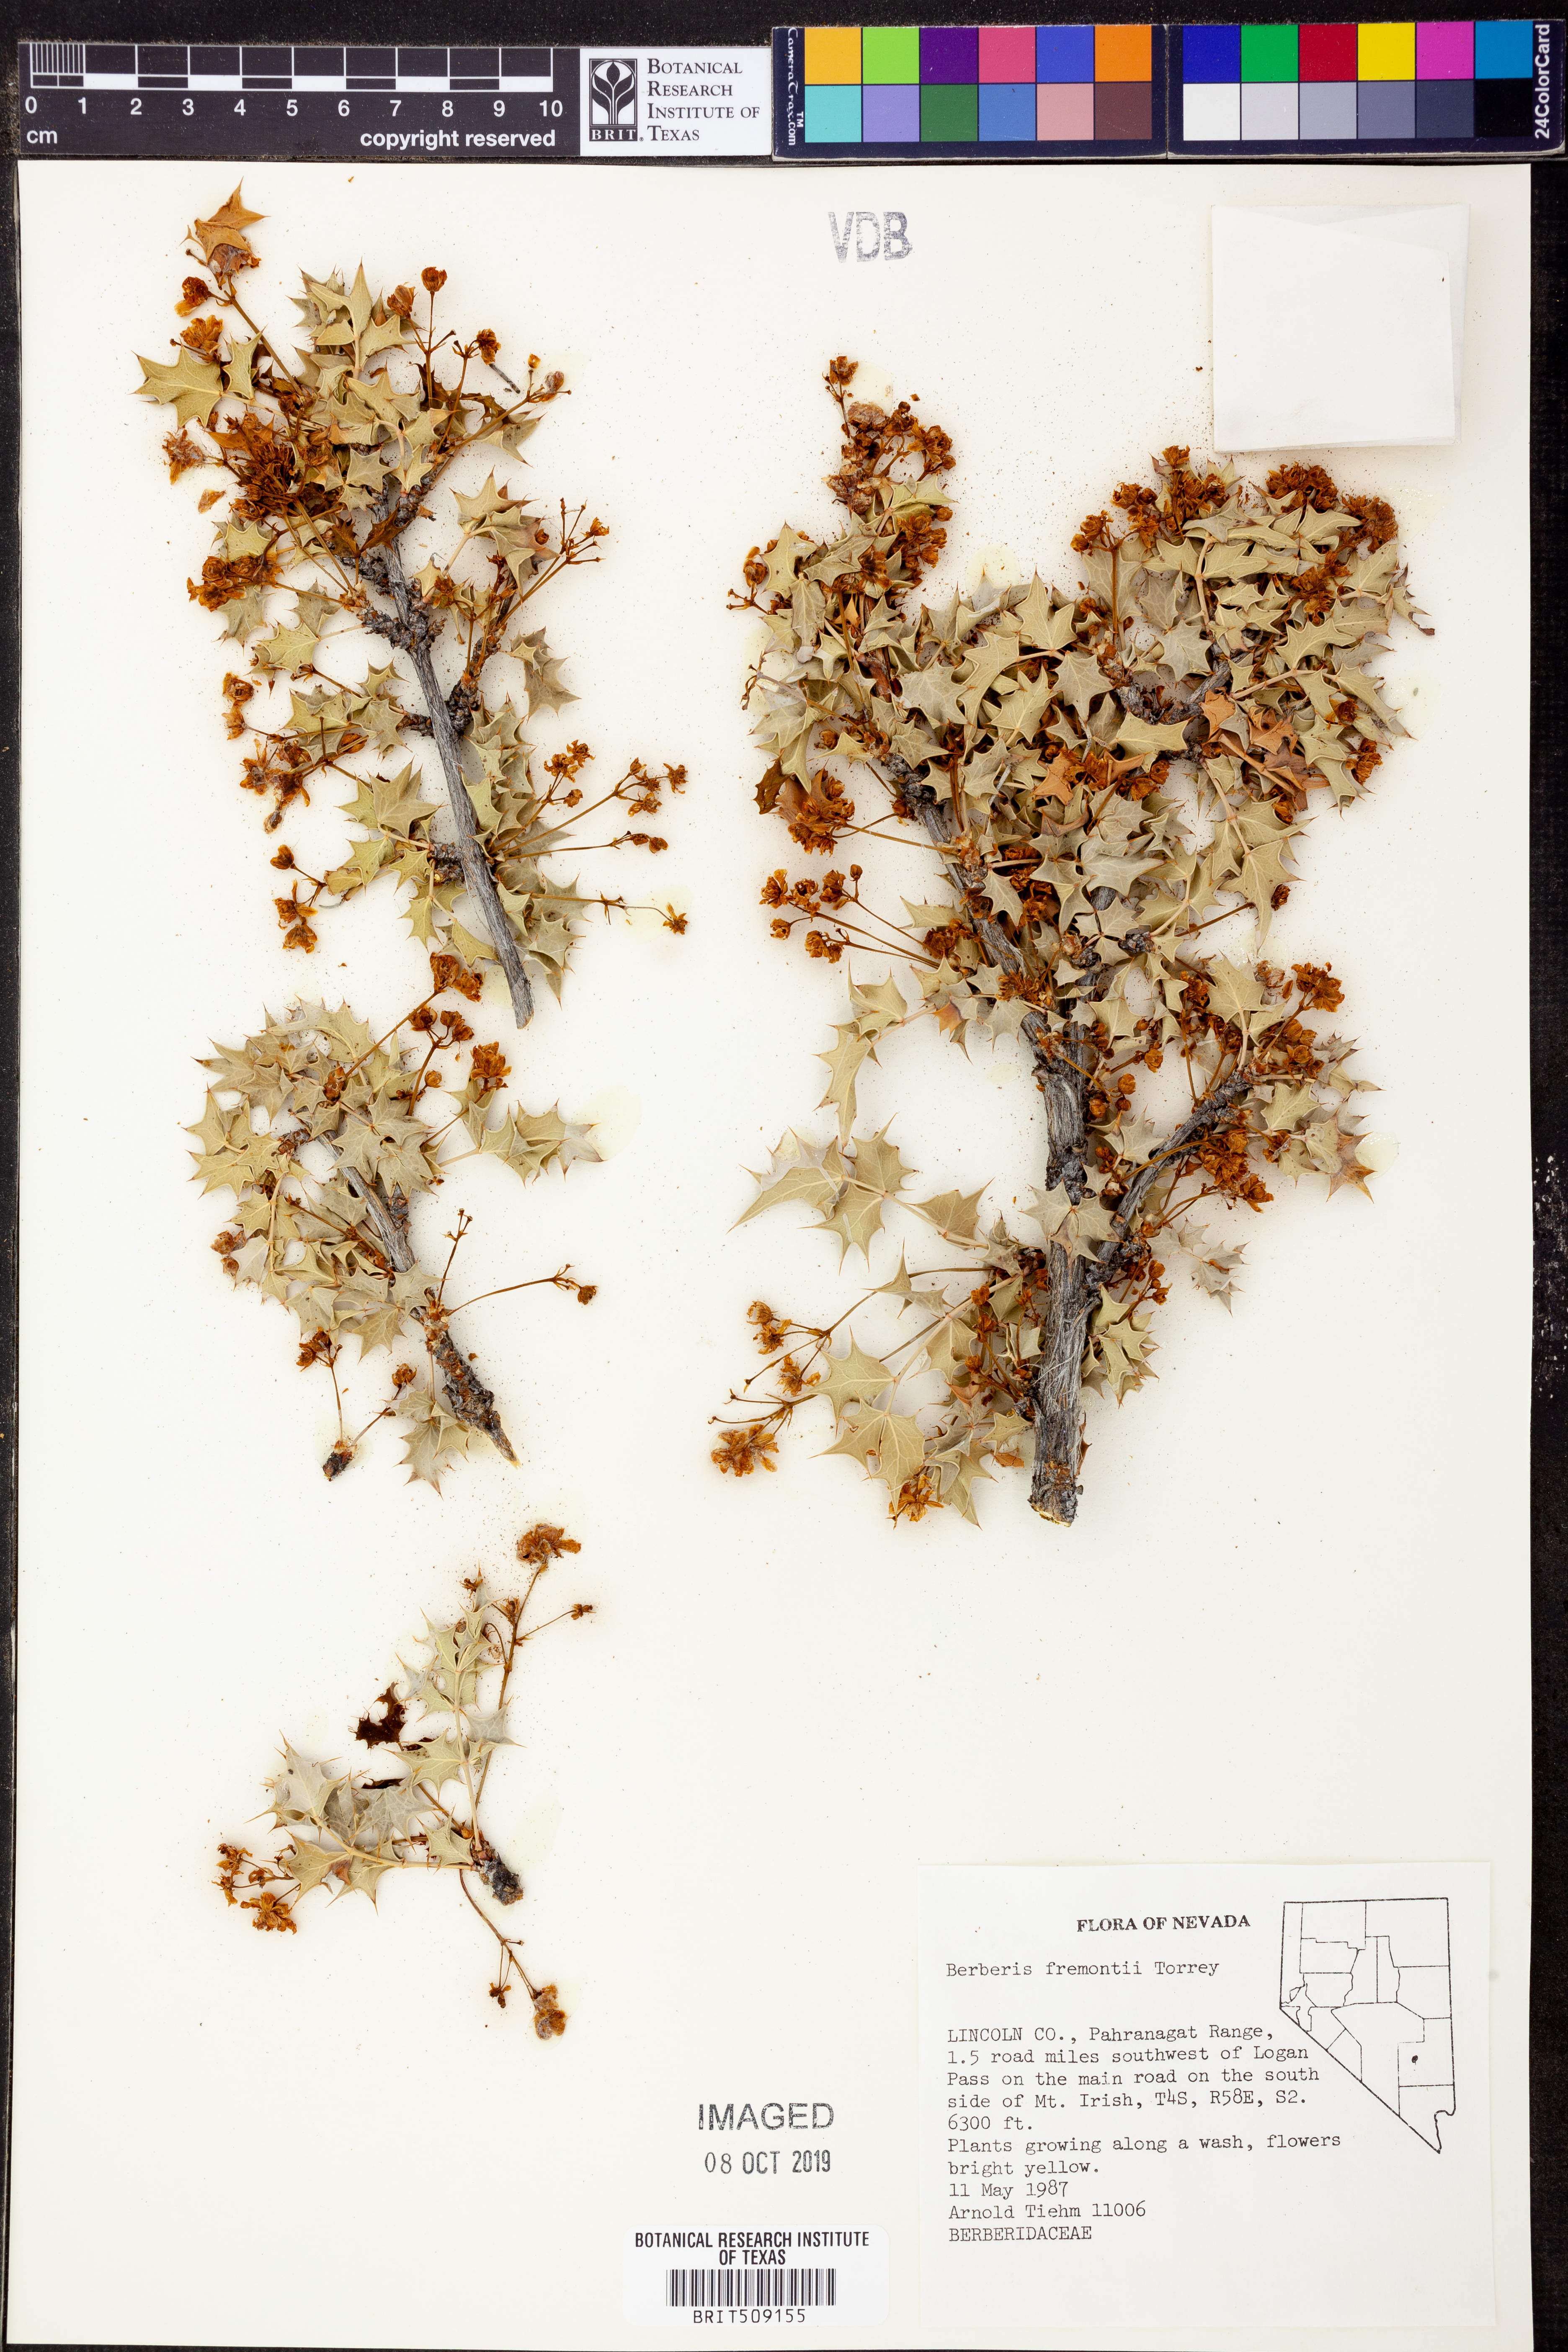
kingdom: Plantae
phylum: Tracheophyta
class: Magnoliopsida
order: Ranunculales
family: Berberidaceae
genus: Alloberberis
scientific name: Alloberberis fremontii
